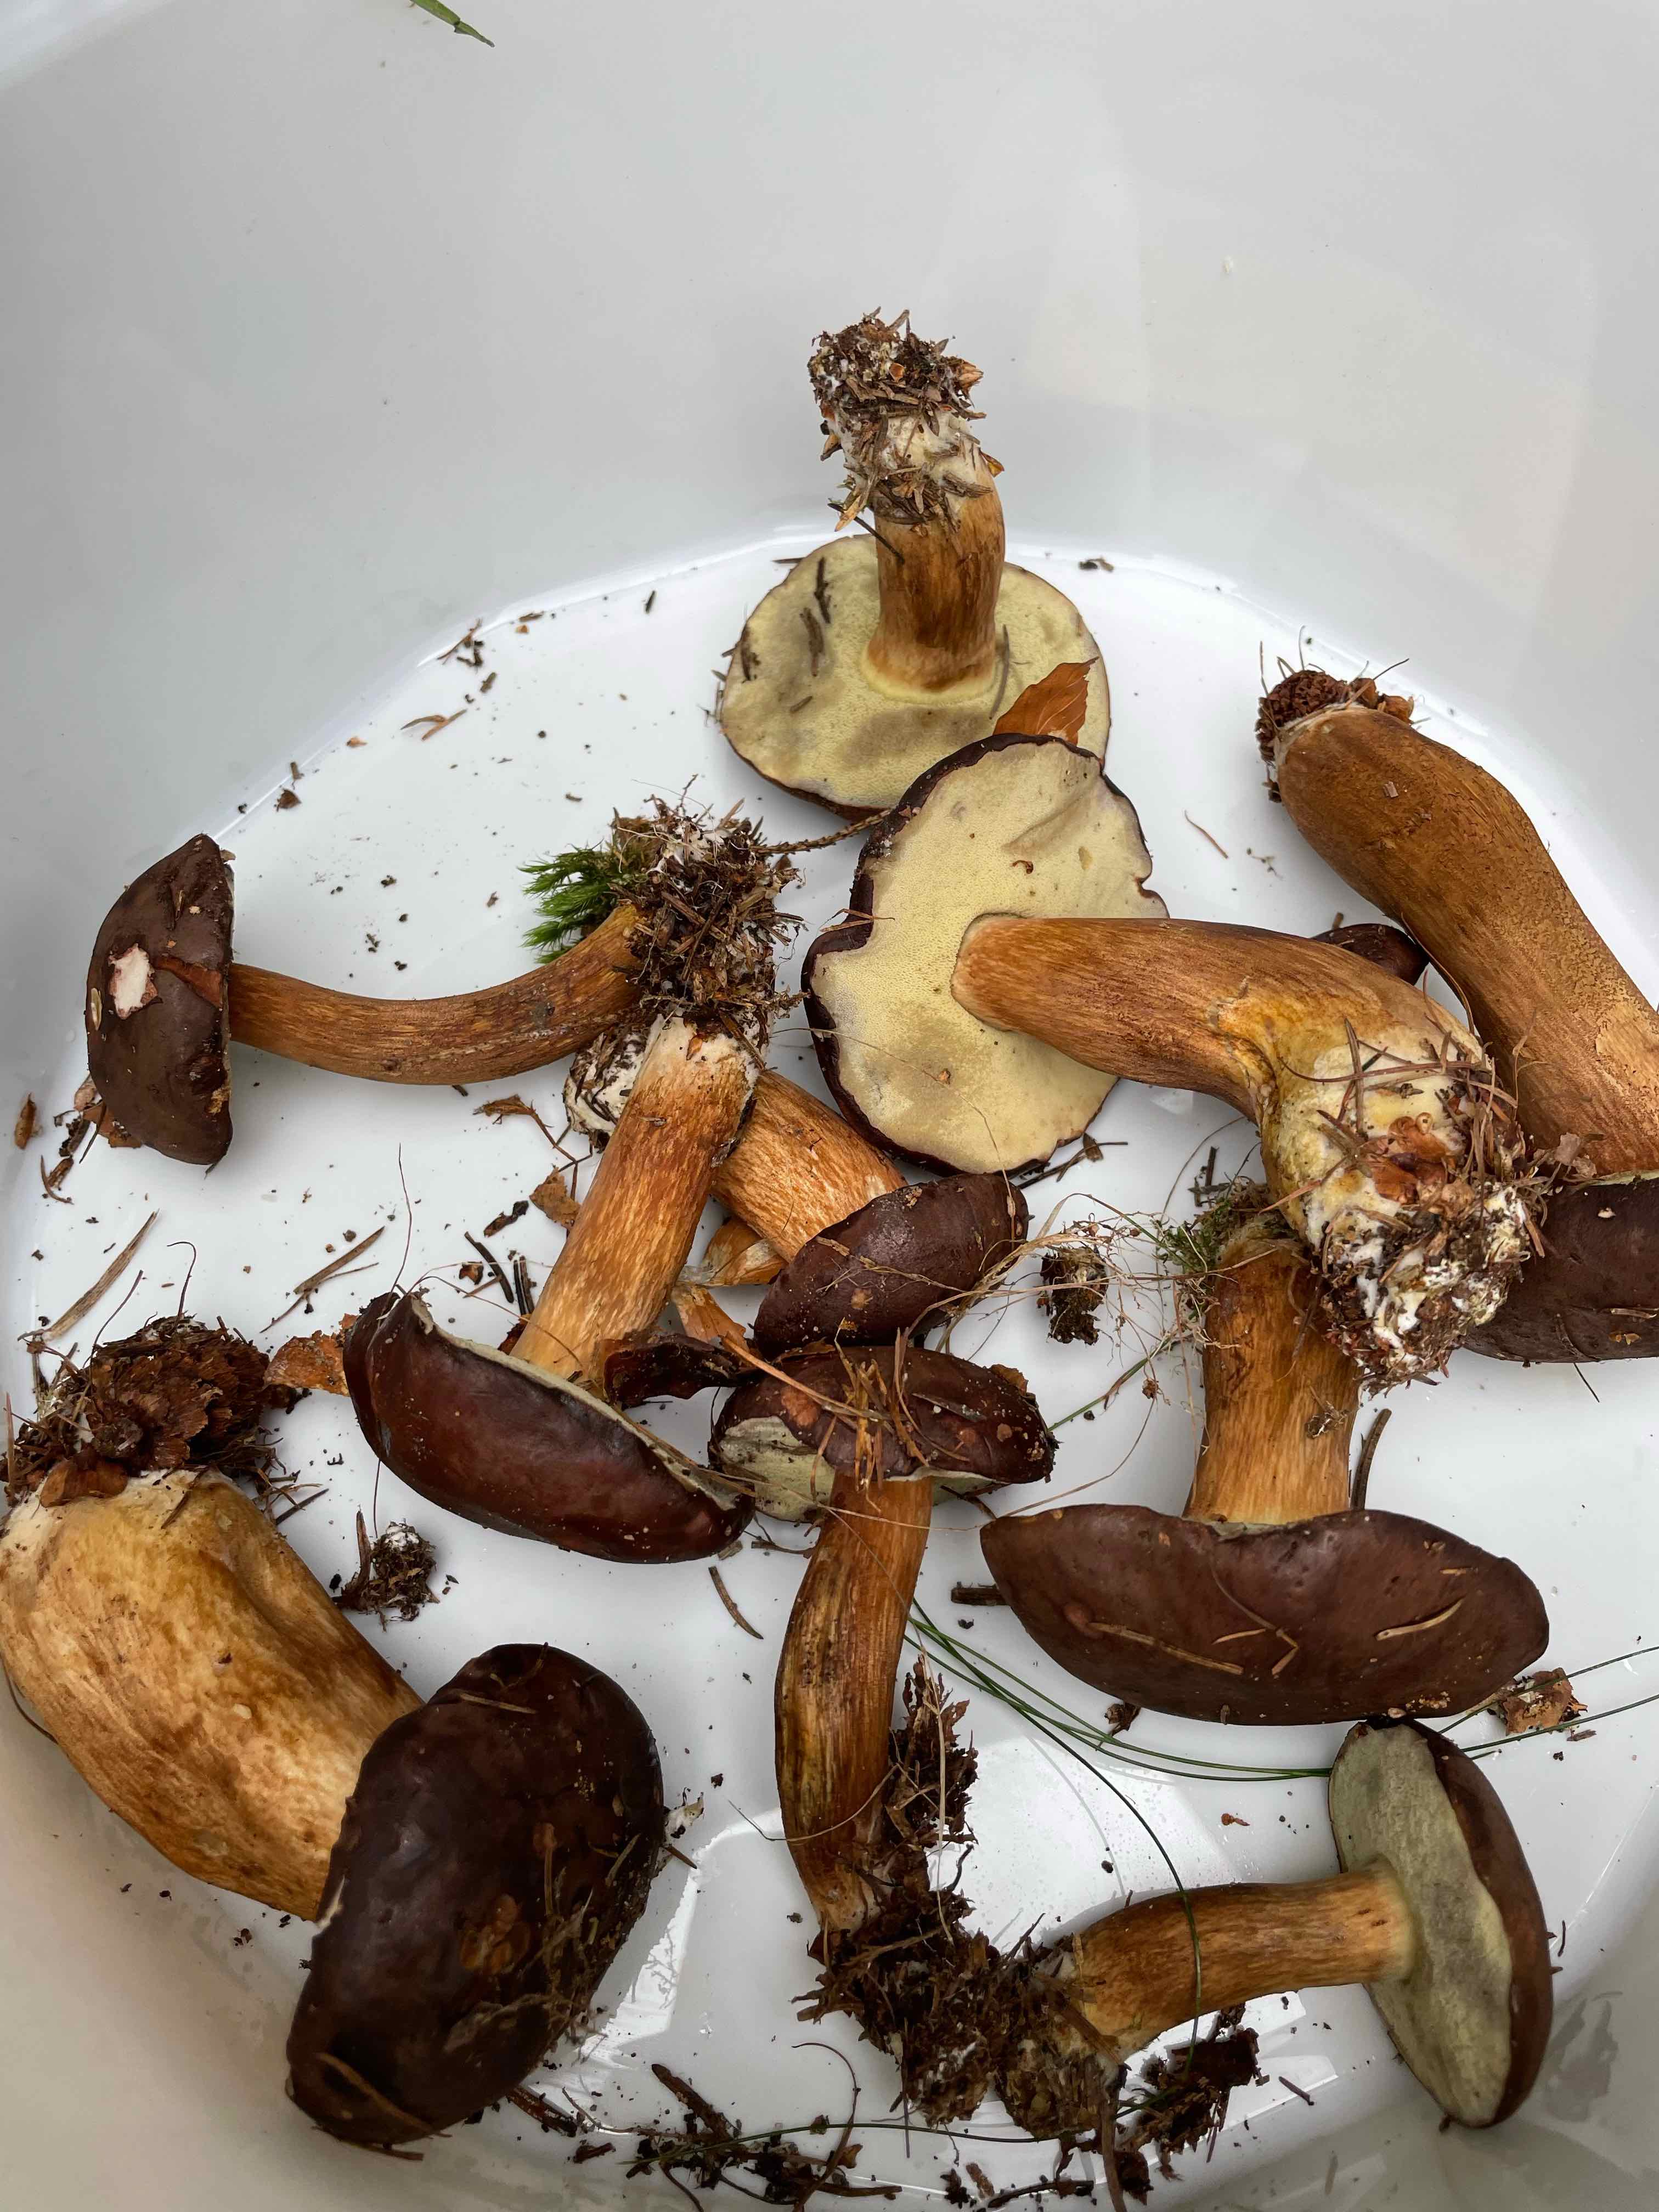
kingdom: Fungi
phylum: Basidiomycota
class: Agaricomycetes
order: Boletales
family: Boletaceae
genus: Imleria
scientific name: Imleria badia
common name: brunstokket rørhat
